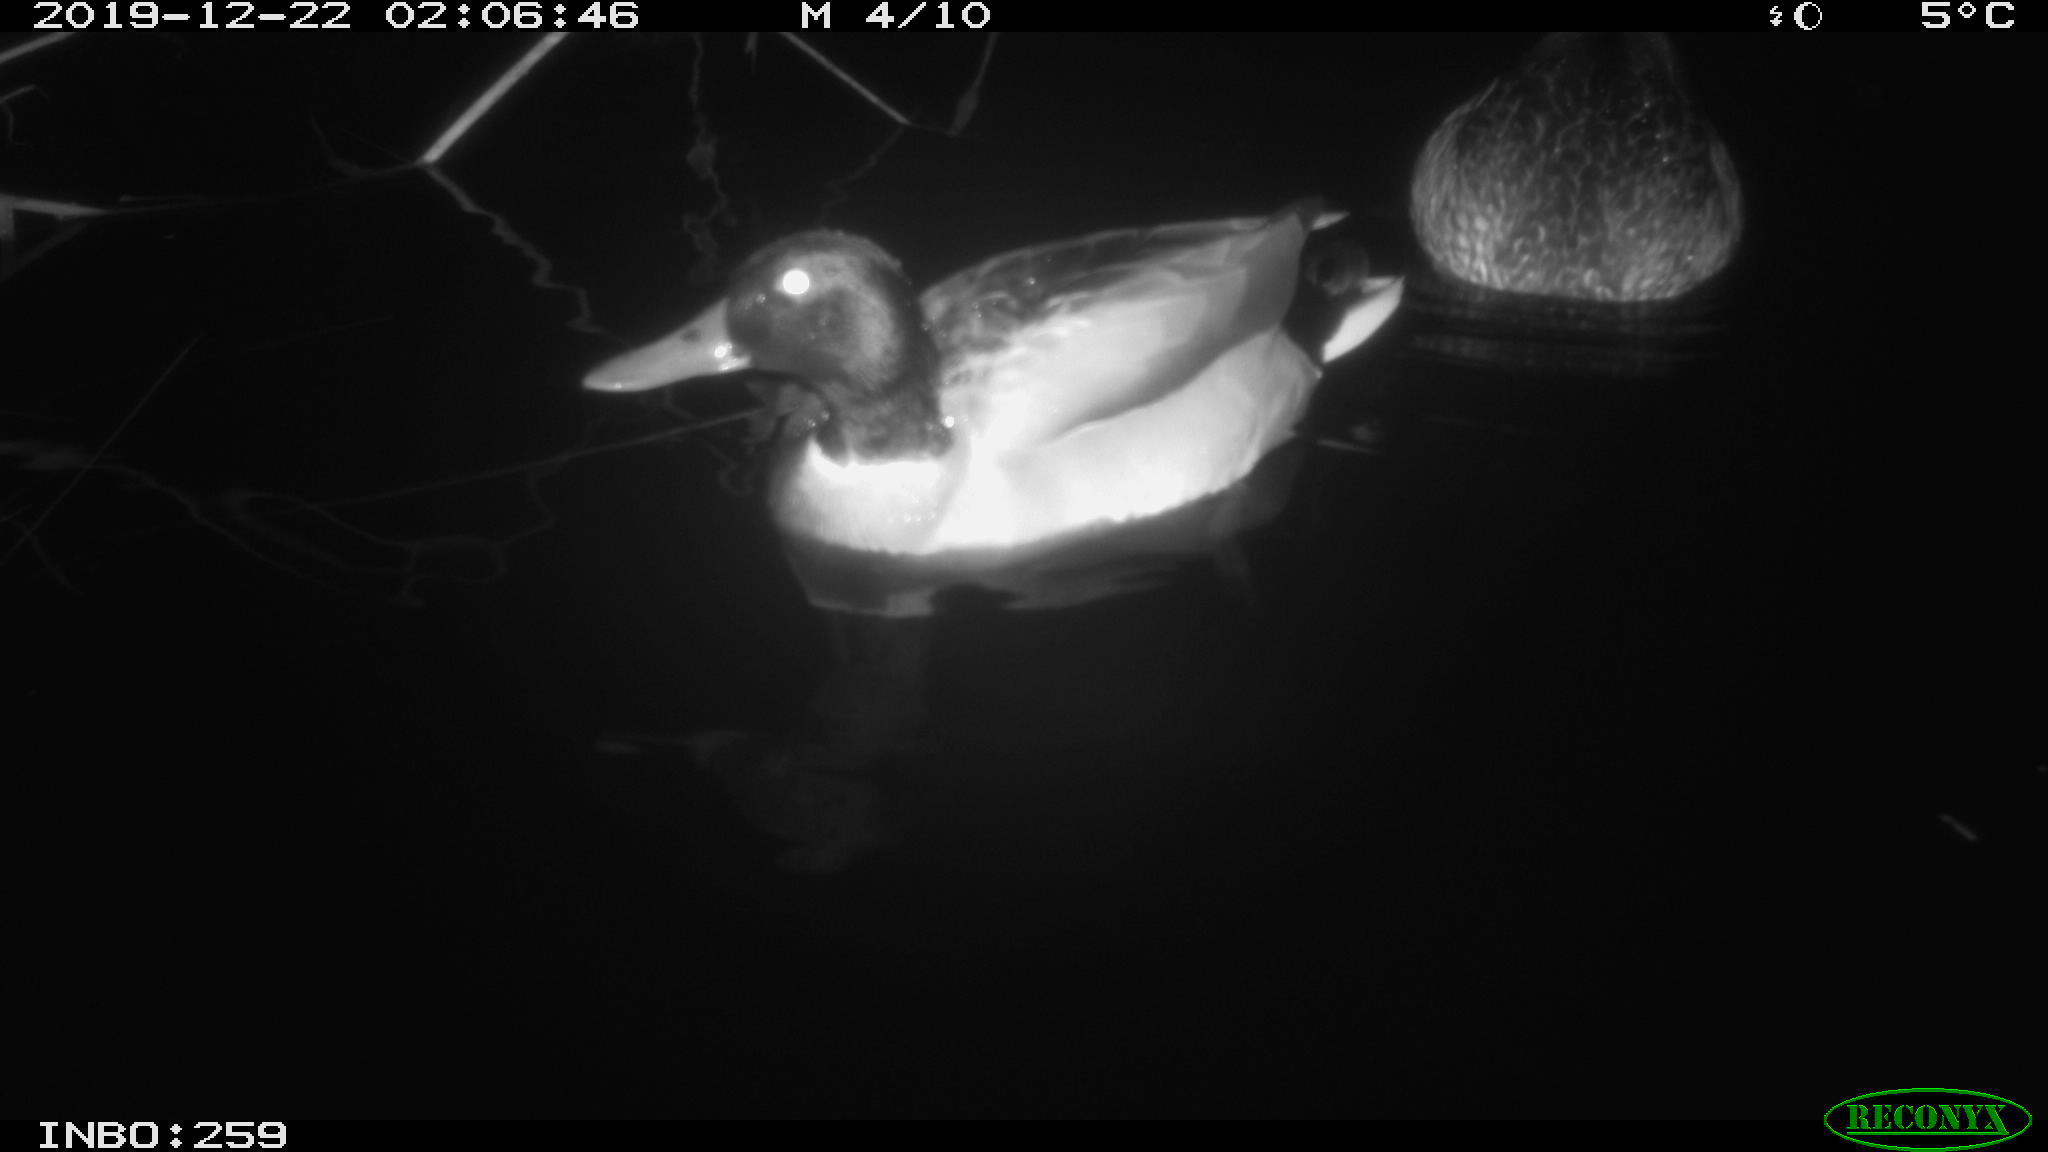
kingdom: Animalia
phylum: Chordata
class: Aves
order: Anseriformes
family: Anatidae
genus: Anas
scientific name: Anas platyrhynchos
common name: Mallard
